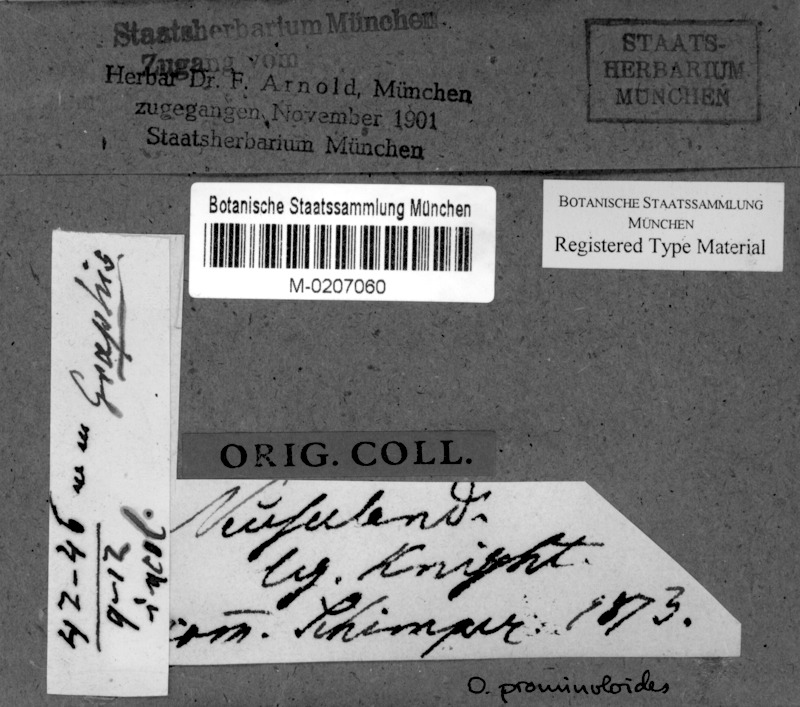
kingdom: Fungi
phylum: Ascomycota
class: Arthoniomycetes
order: Arthoniales
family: Opegraphaceae
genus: Opegrapha
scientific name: Opegrapha intertexta
